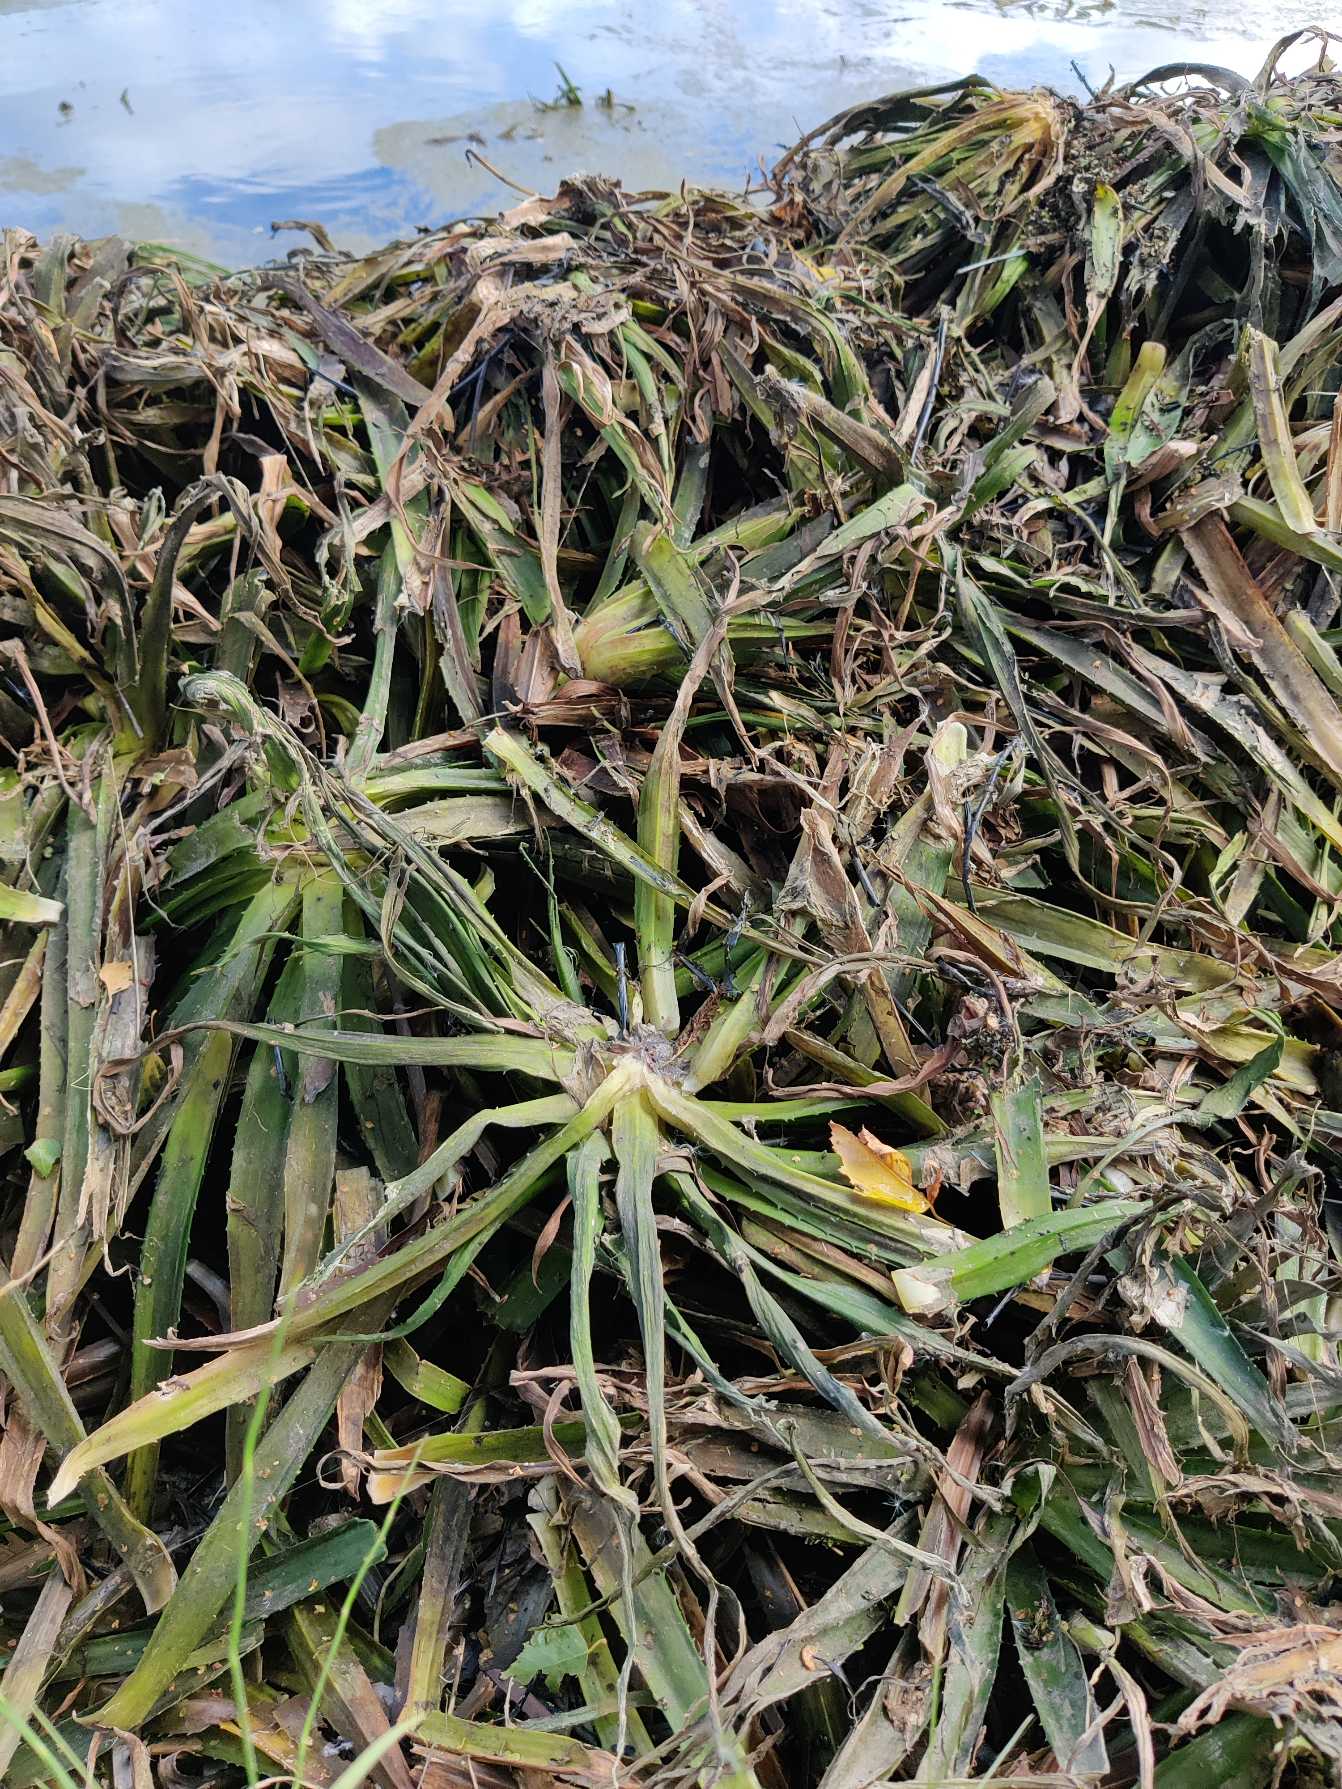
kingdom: Plantae
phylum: Tracheophyta
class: Liliopsida
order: Alismatales
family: Hydrocharitaceae
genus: Stratiotes
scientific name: Stratiotes aloides
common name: Krebseklo
